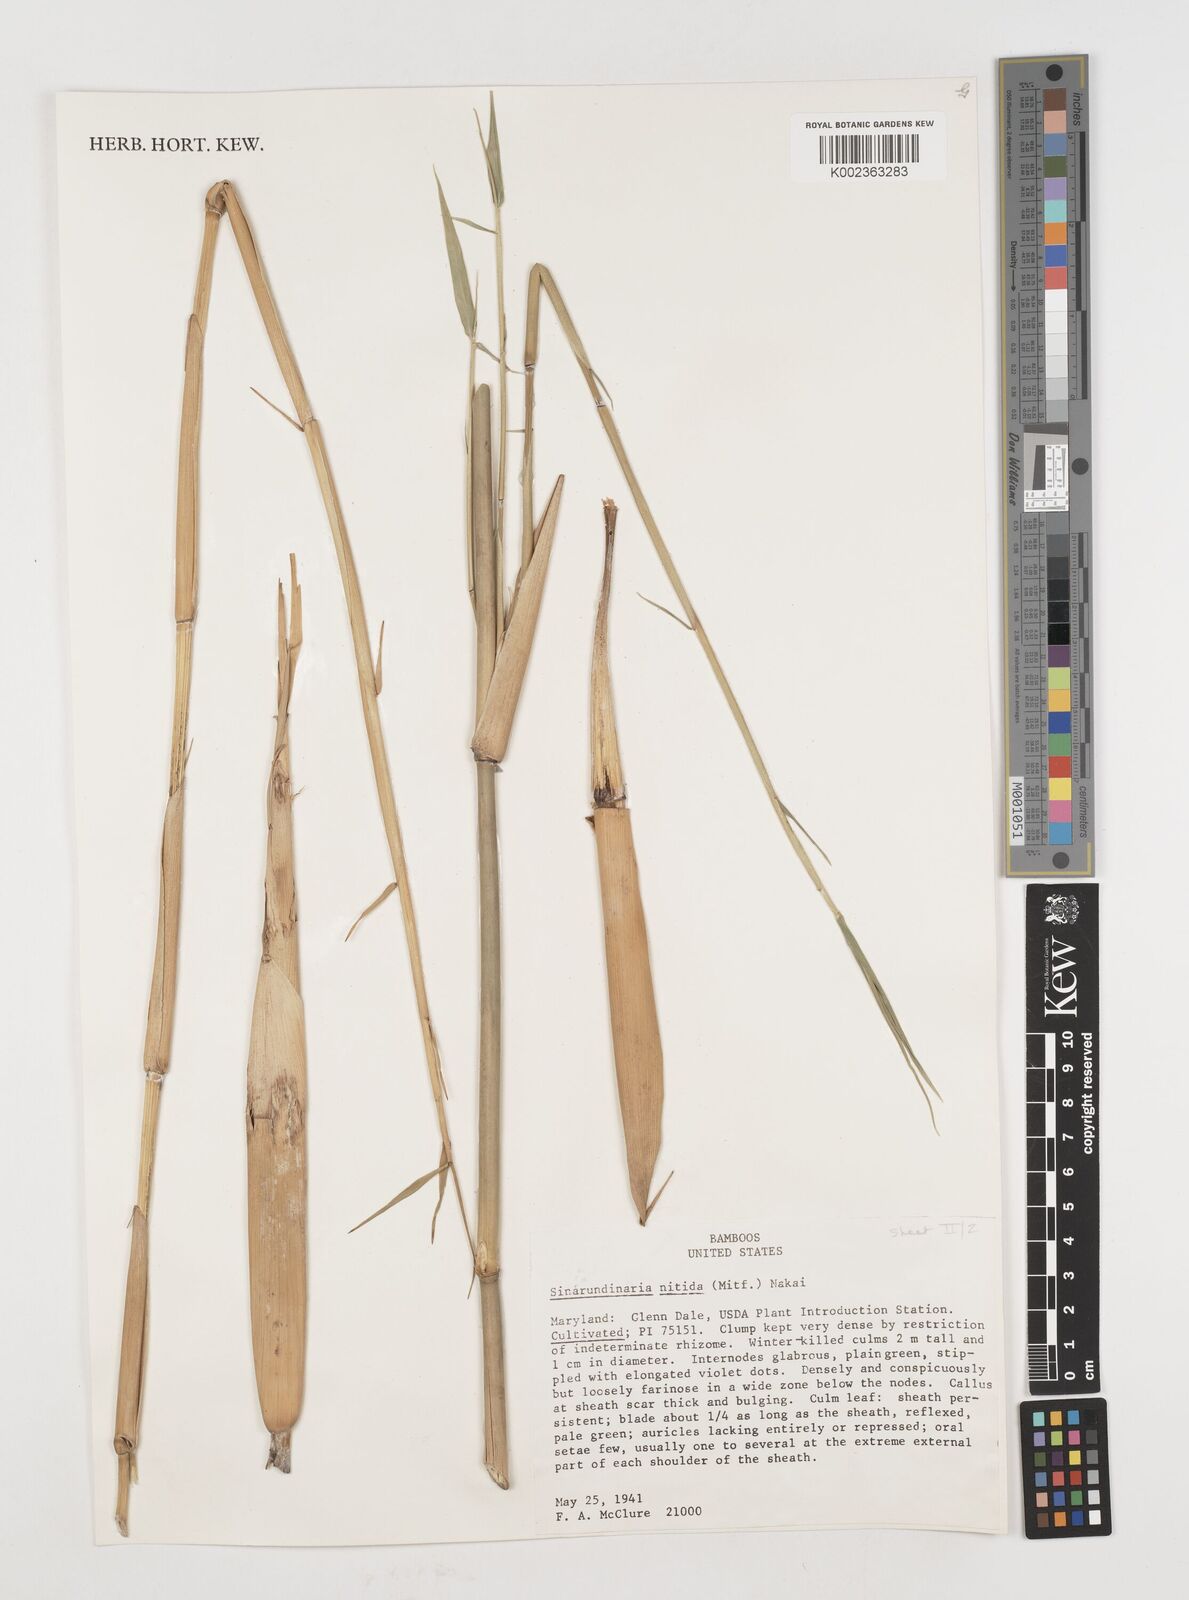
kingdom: Plantae
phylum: Tracheophyta
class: Liliopsida
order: Poales
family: Poaceae
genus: Fargesia
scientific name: Fargesia nitida ex
